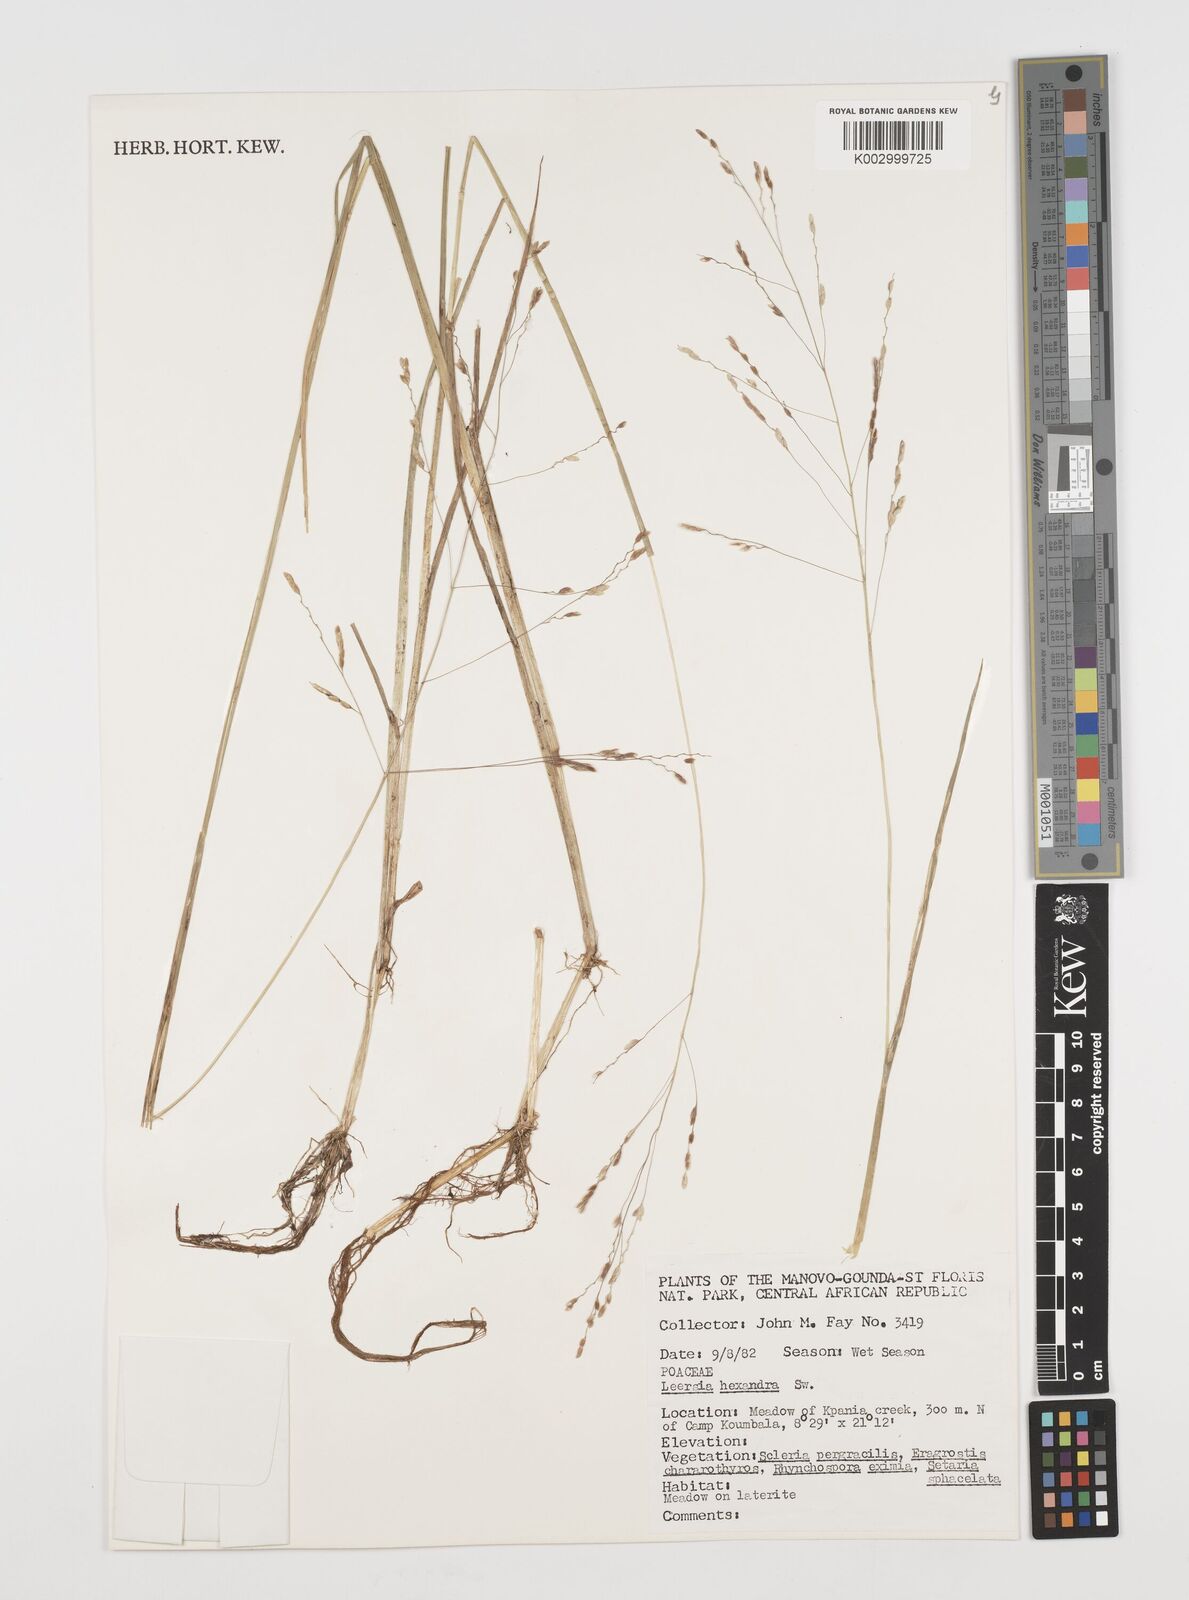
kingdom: Plantae
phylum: Tracheophyta
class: Liliopsida
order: Poales
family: Poaceae
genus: Leersia
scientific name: Leersia hexandra
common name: Southern cut grass
